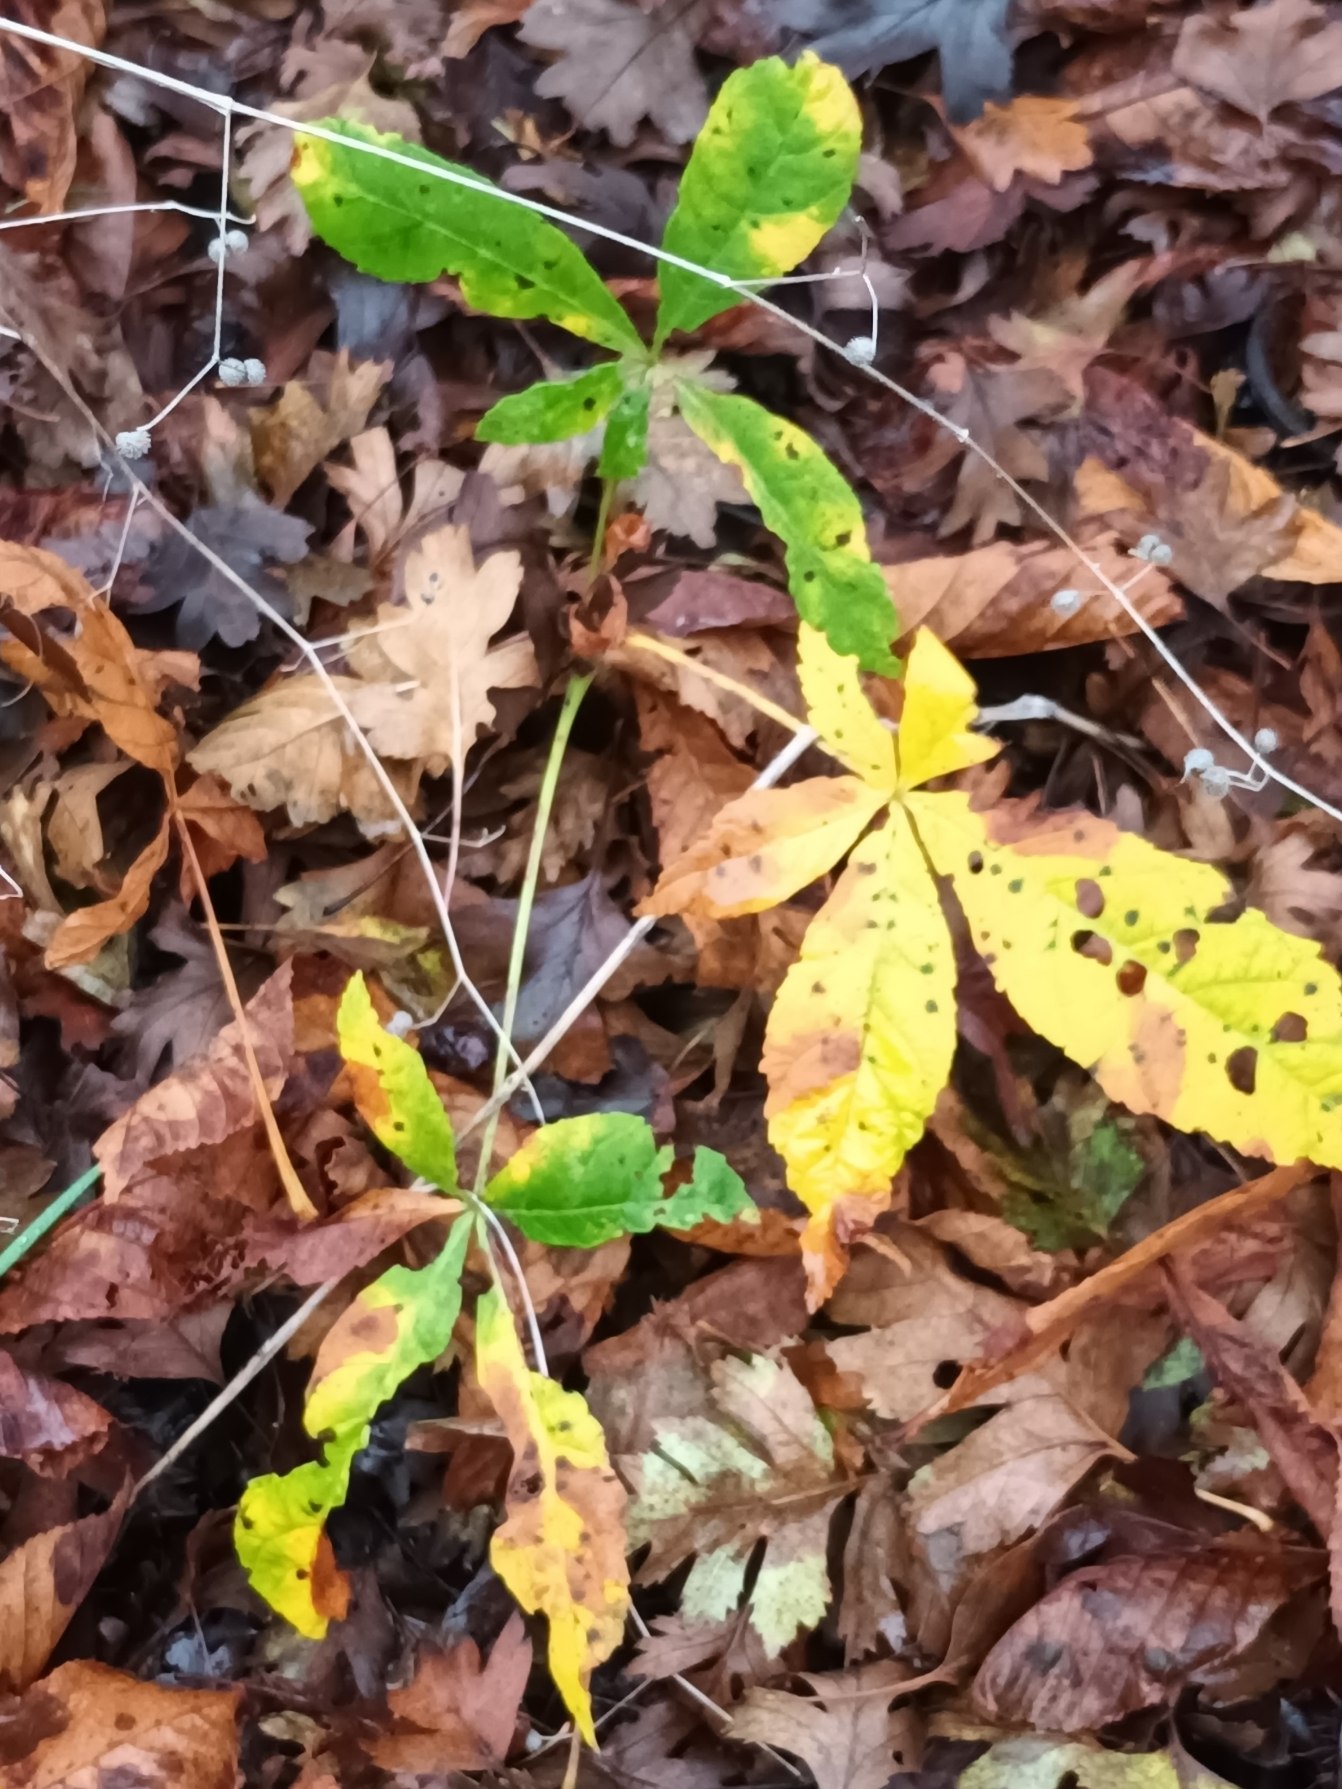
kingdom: Plantae
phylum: Tracheophyta
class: Magnoliopsida
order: Sapindales
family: Sapindaceae
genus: Aesculus
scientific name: Aesculus hippocastanum
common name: Hestekastanie
